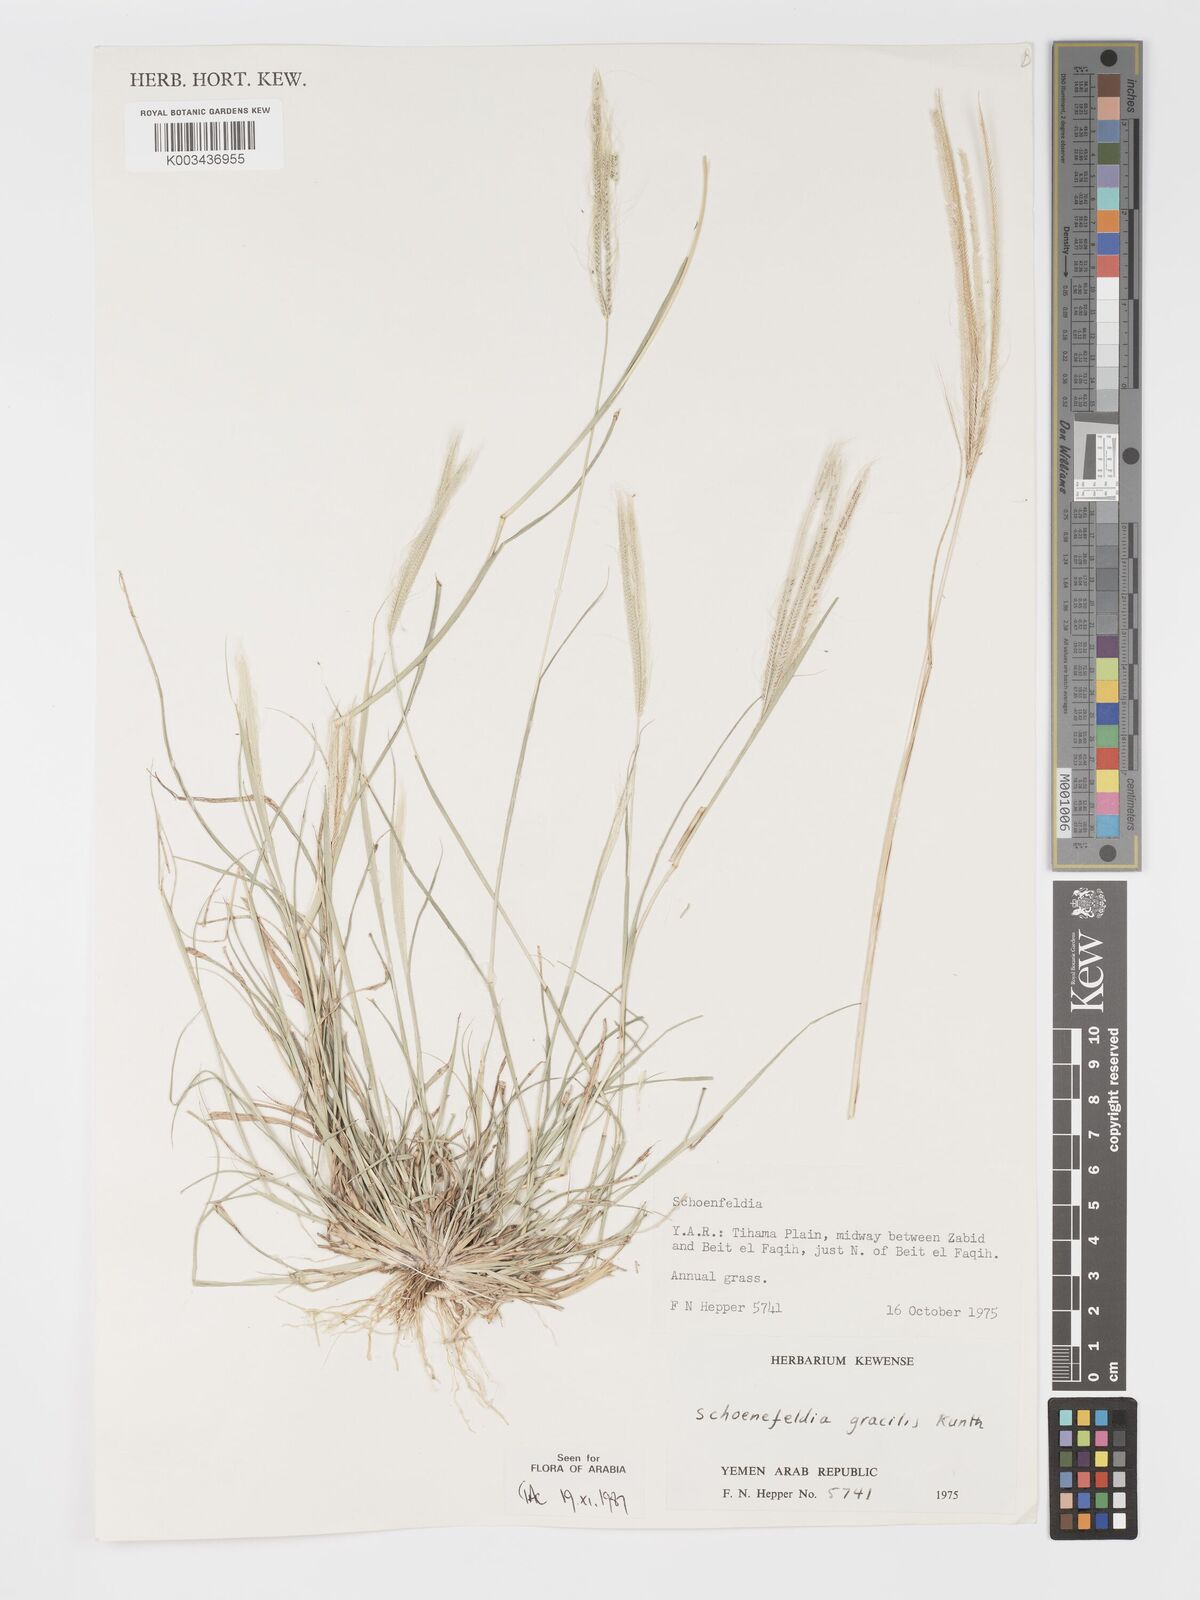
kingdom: Plantae
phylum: Tracheophyta
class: Liliopsida
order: Poales
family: Poaceae
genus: Schoenefeldia
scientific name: Schoenefeldia gracilis
